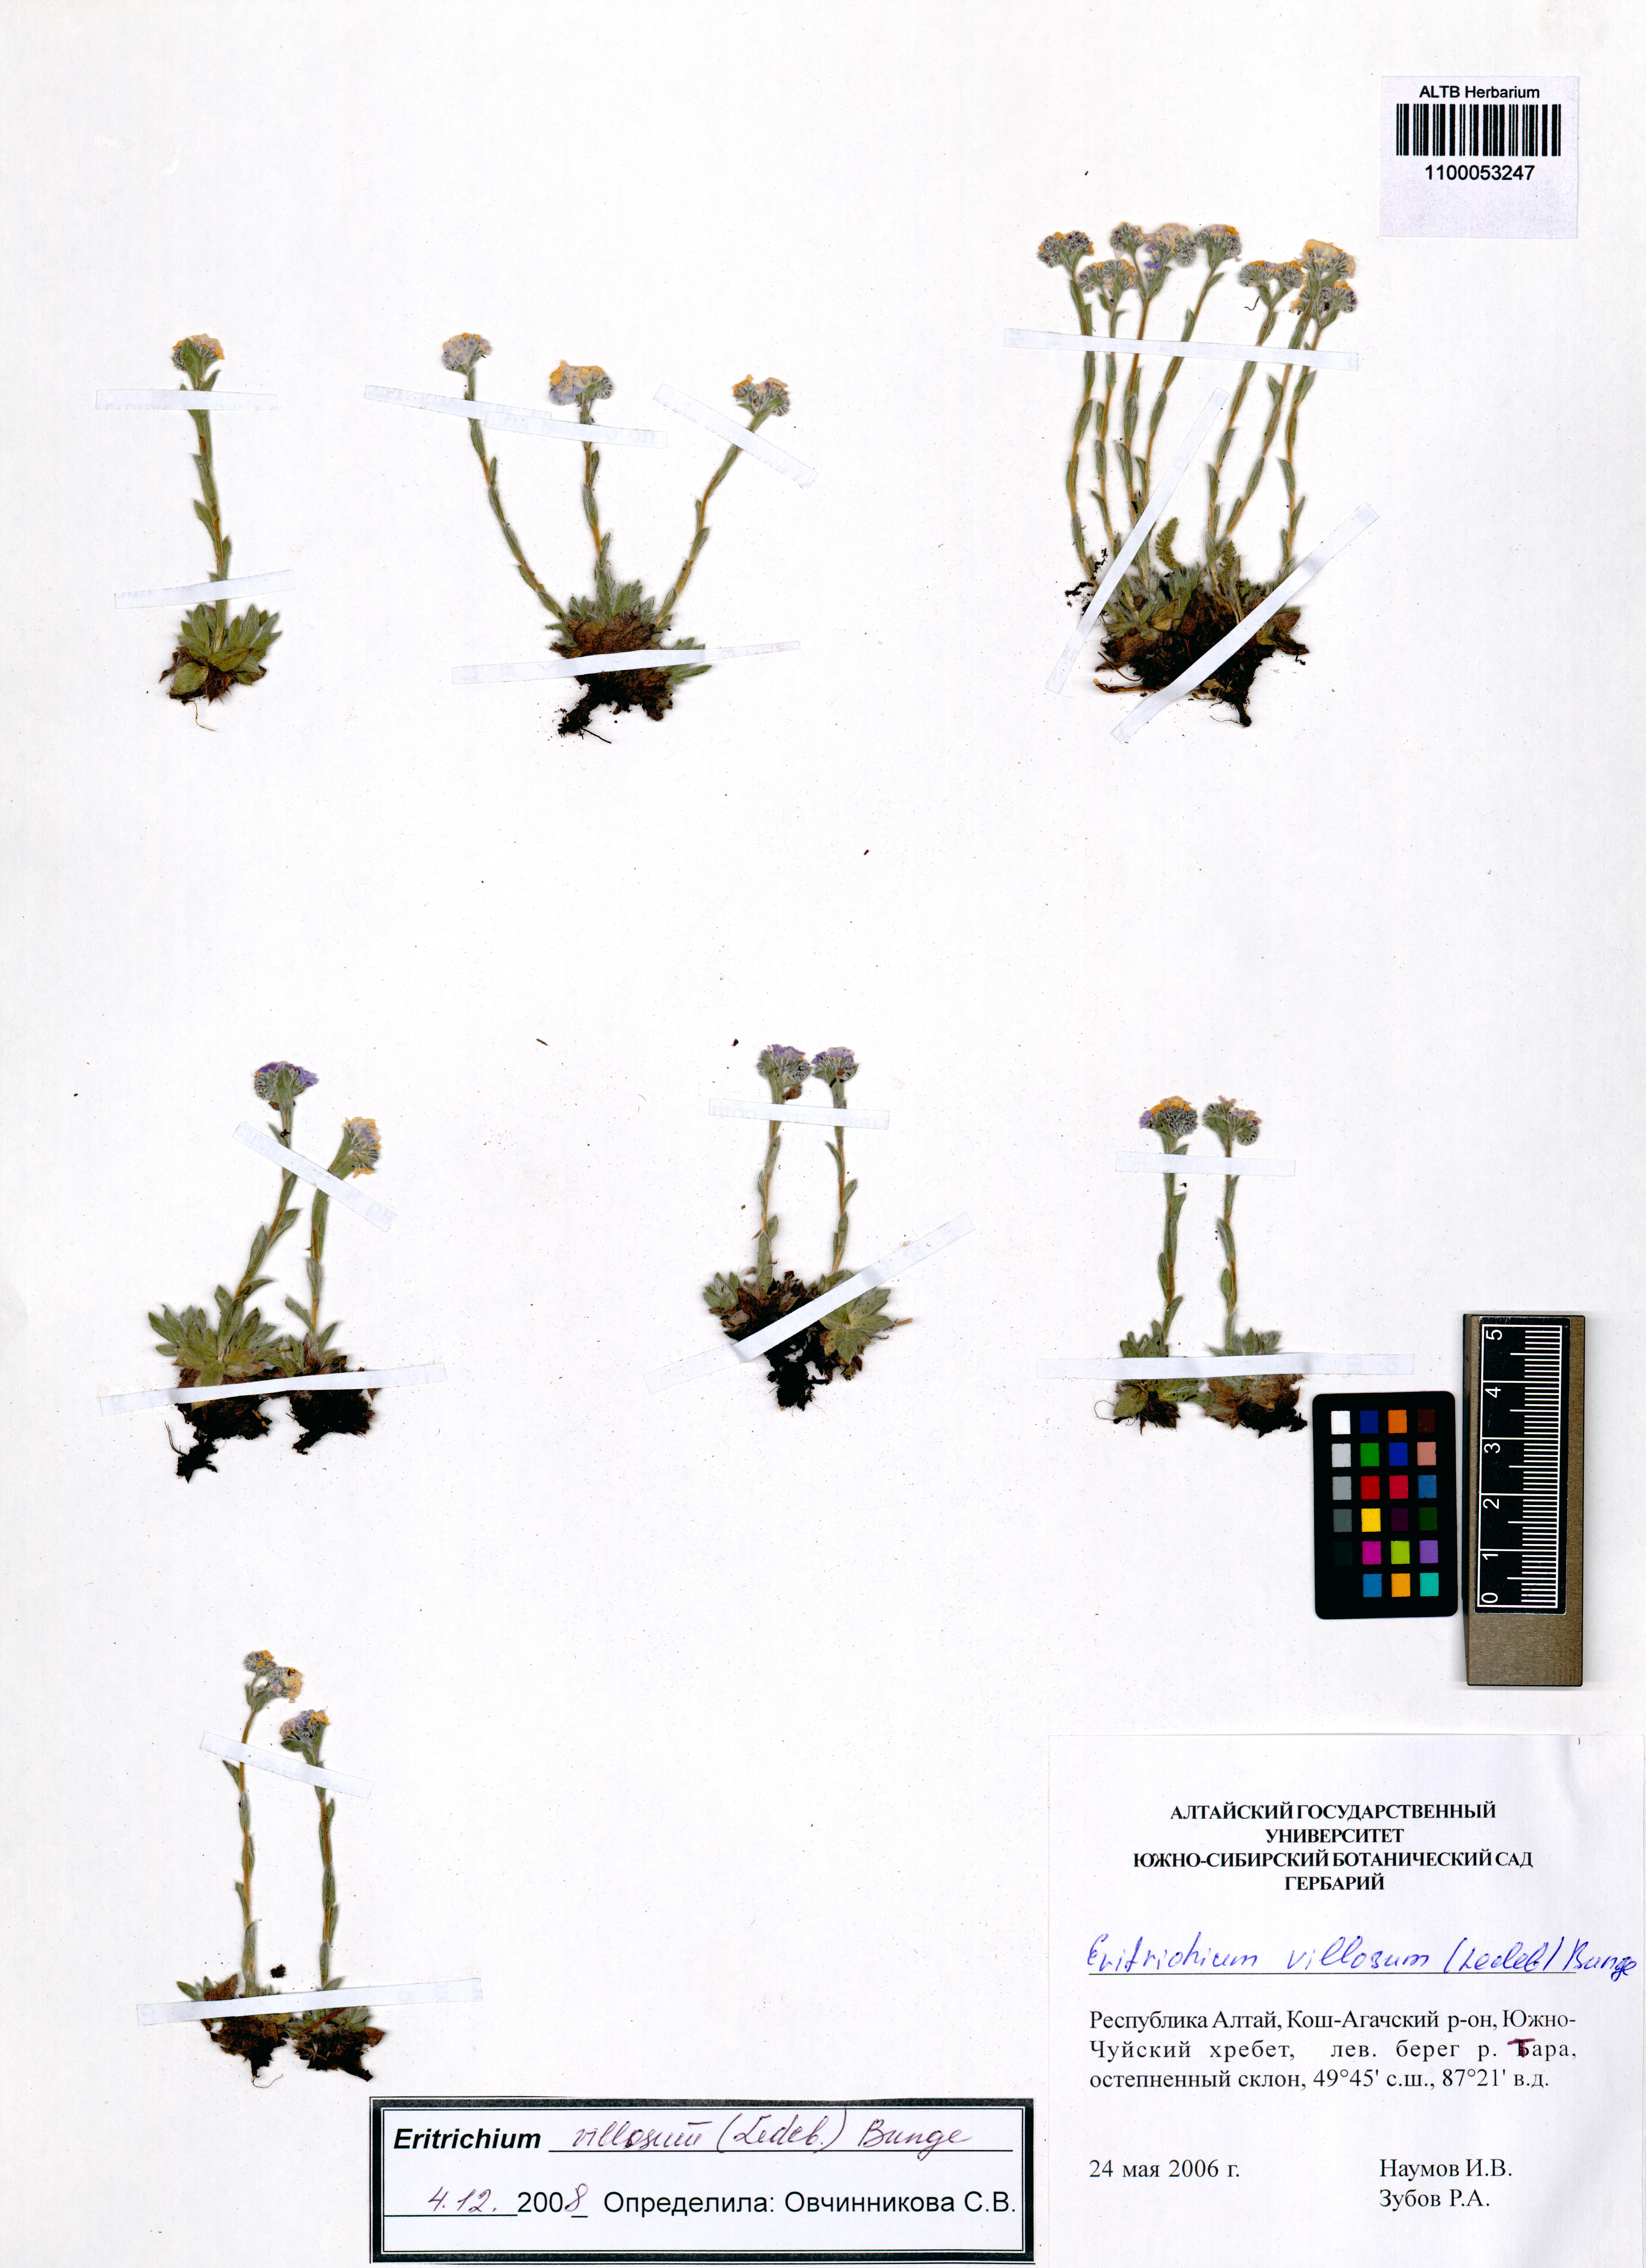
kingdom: Plantae
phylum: Tracheophyta
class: Magnoliopsida
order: Boraginales
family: Boraginaceae
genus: Eritrichium
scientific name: Eritrichium villosum
